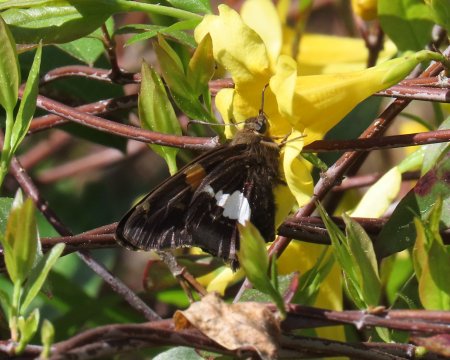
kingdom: Animalia
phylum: Arthropoda
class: Insecta
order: Lepidoptera
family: Hesperiidae
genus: Epargyreus
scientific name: Epargyreus clarus
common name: Silver-spotted Skipper
